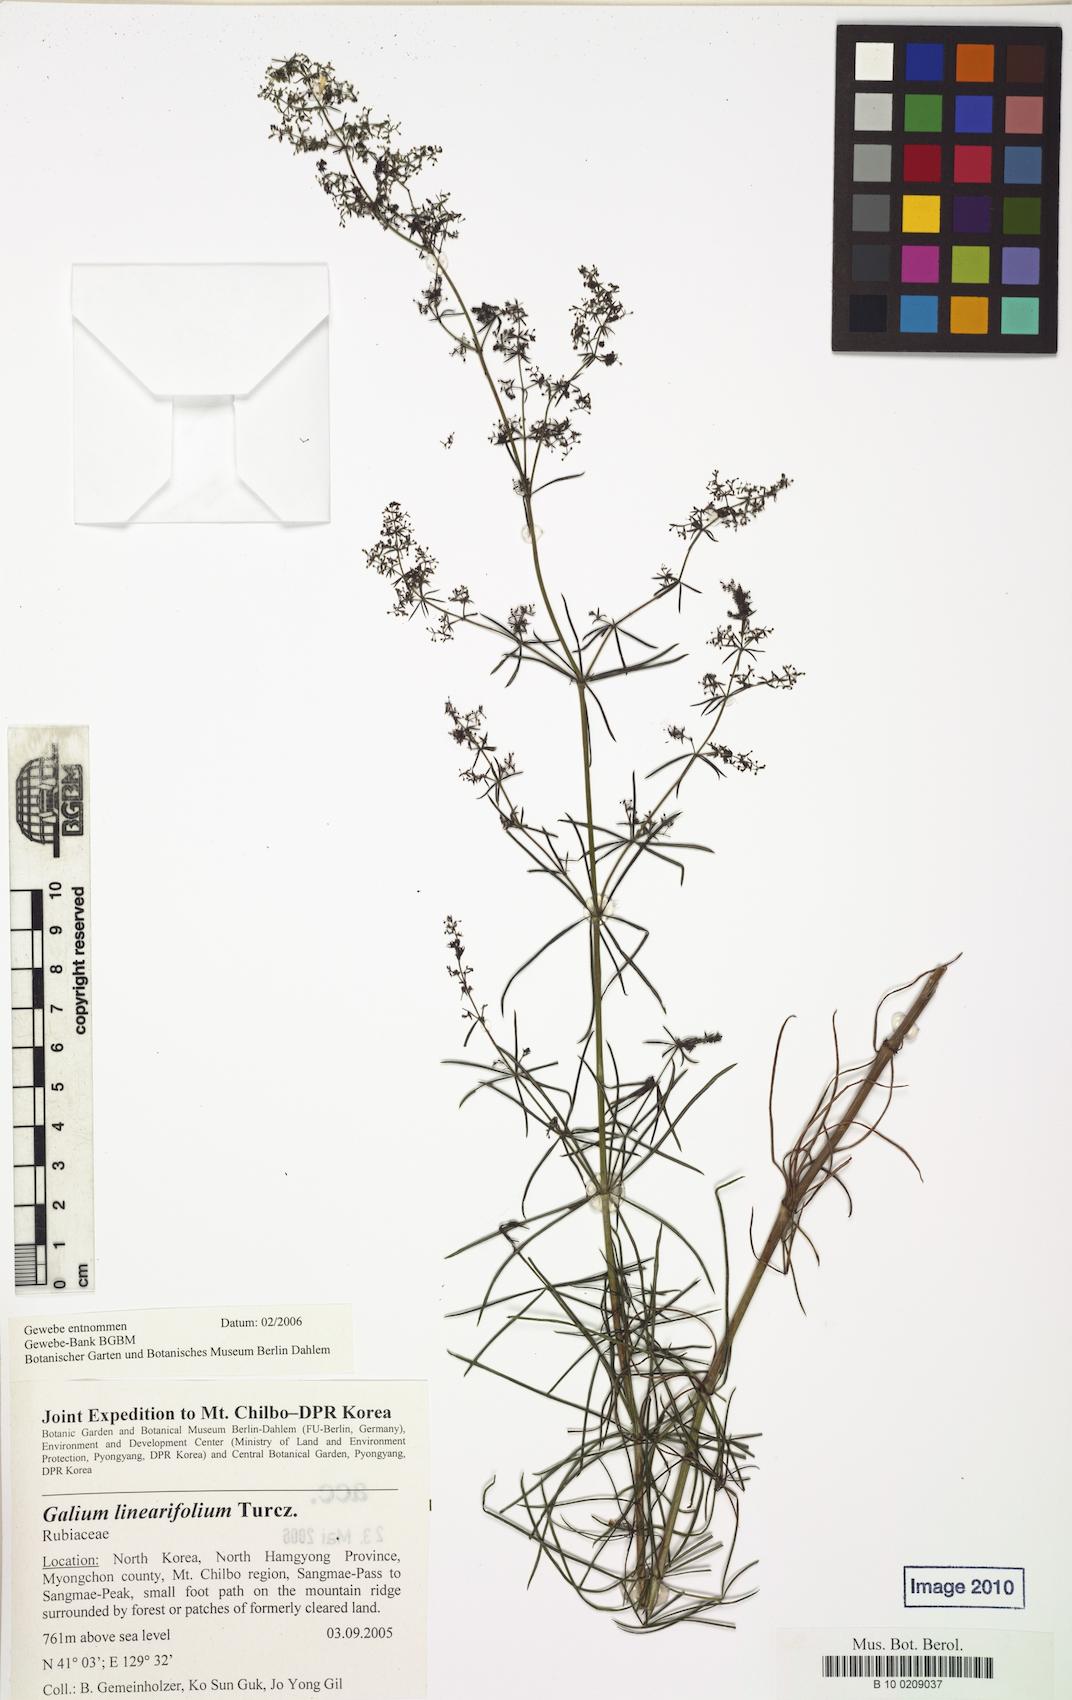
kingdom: Plantae
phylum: Tracheophyta
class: Magnoliopsida
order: Gentianales
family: Rubiaceae
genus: Galium
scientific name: Galium linearifolium
